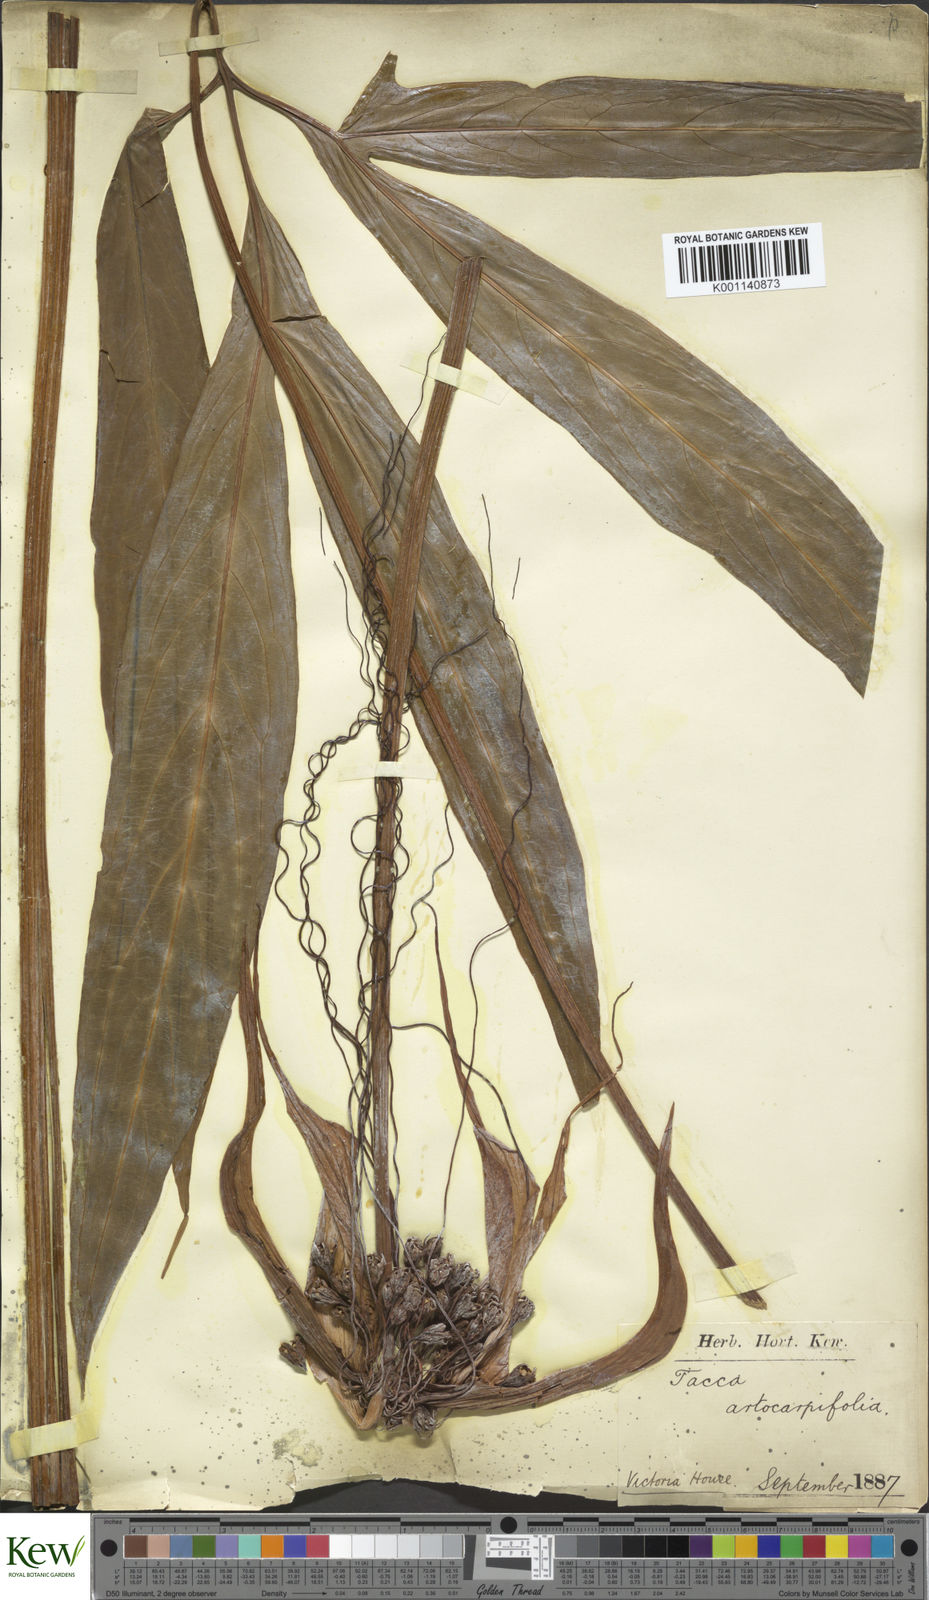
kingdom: Plantae
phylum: Tracheophyta
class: Liliopsida
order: Dioscoreales
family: Dioscoreaceae
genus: Tacca
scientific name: Tacca leontopetaloides
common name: Arrowroot
